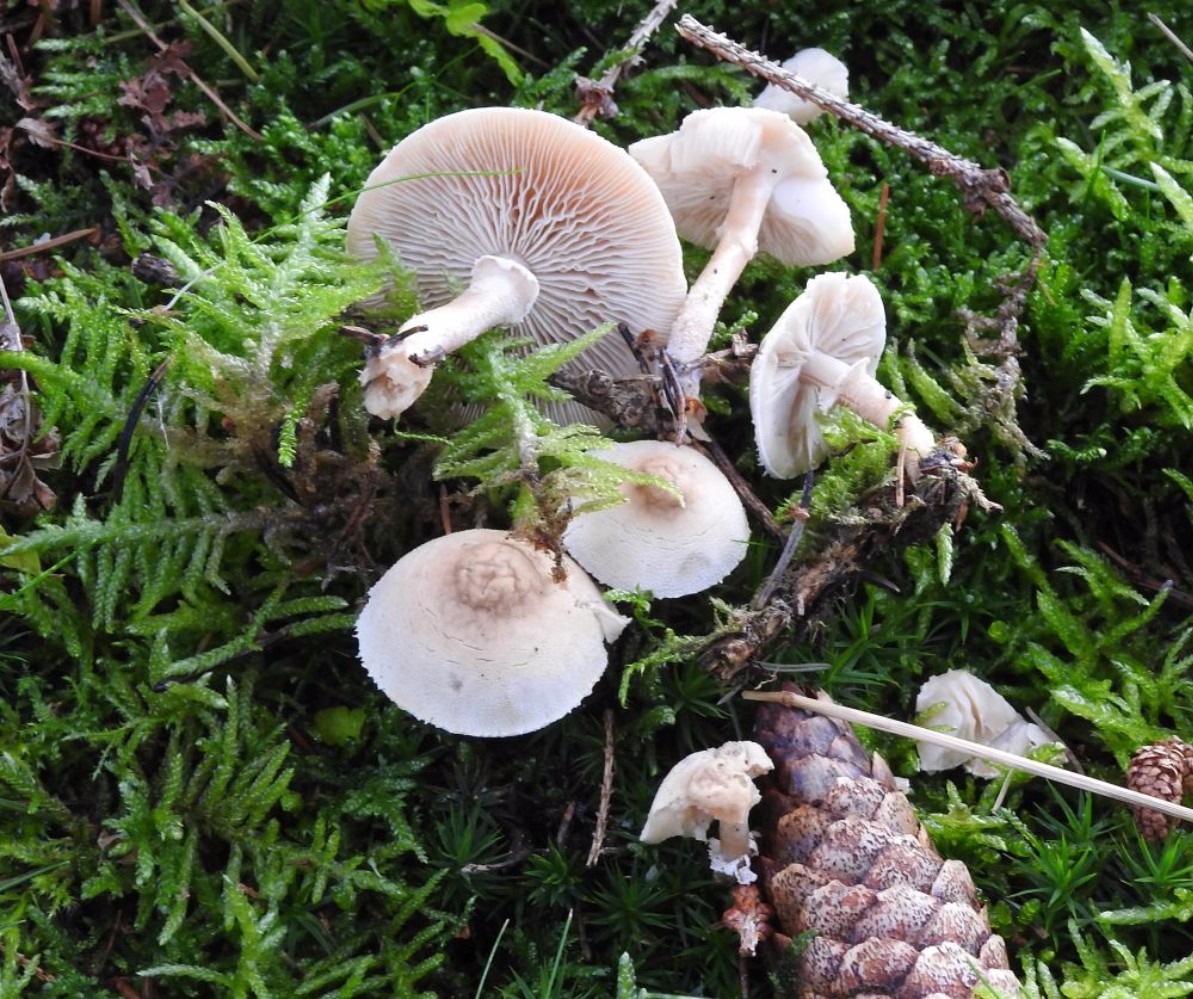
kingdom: Fungi
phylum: Basidiomycota
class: Agaricomycetes
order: Agaricales
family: Tricholomataceae
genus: Cystoderma
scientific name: Cystoderma carcharias
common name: rødgrå grynhat
